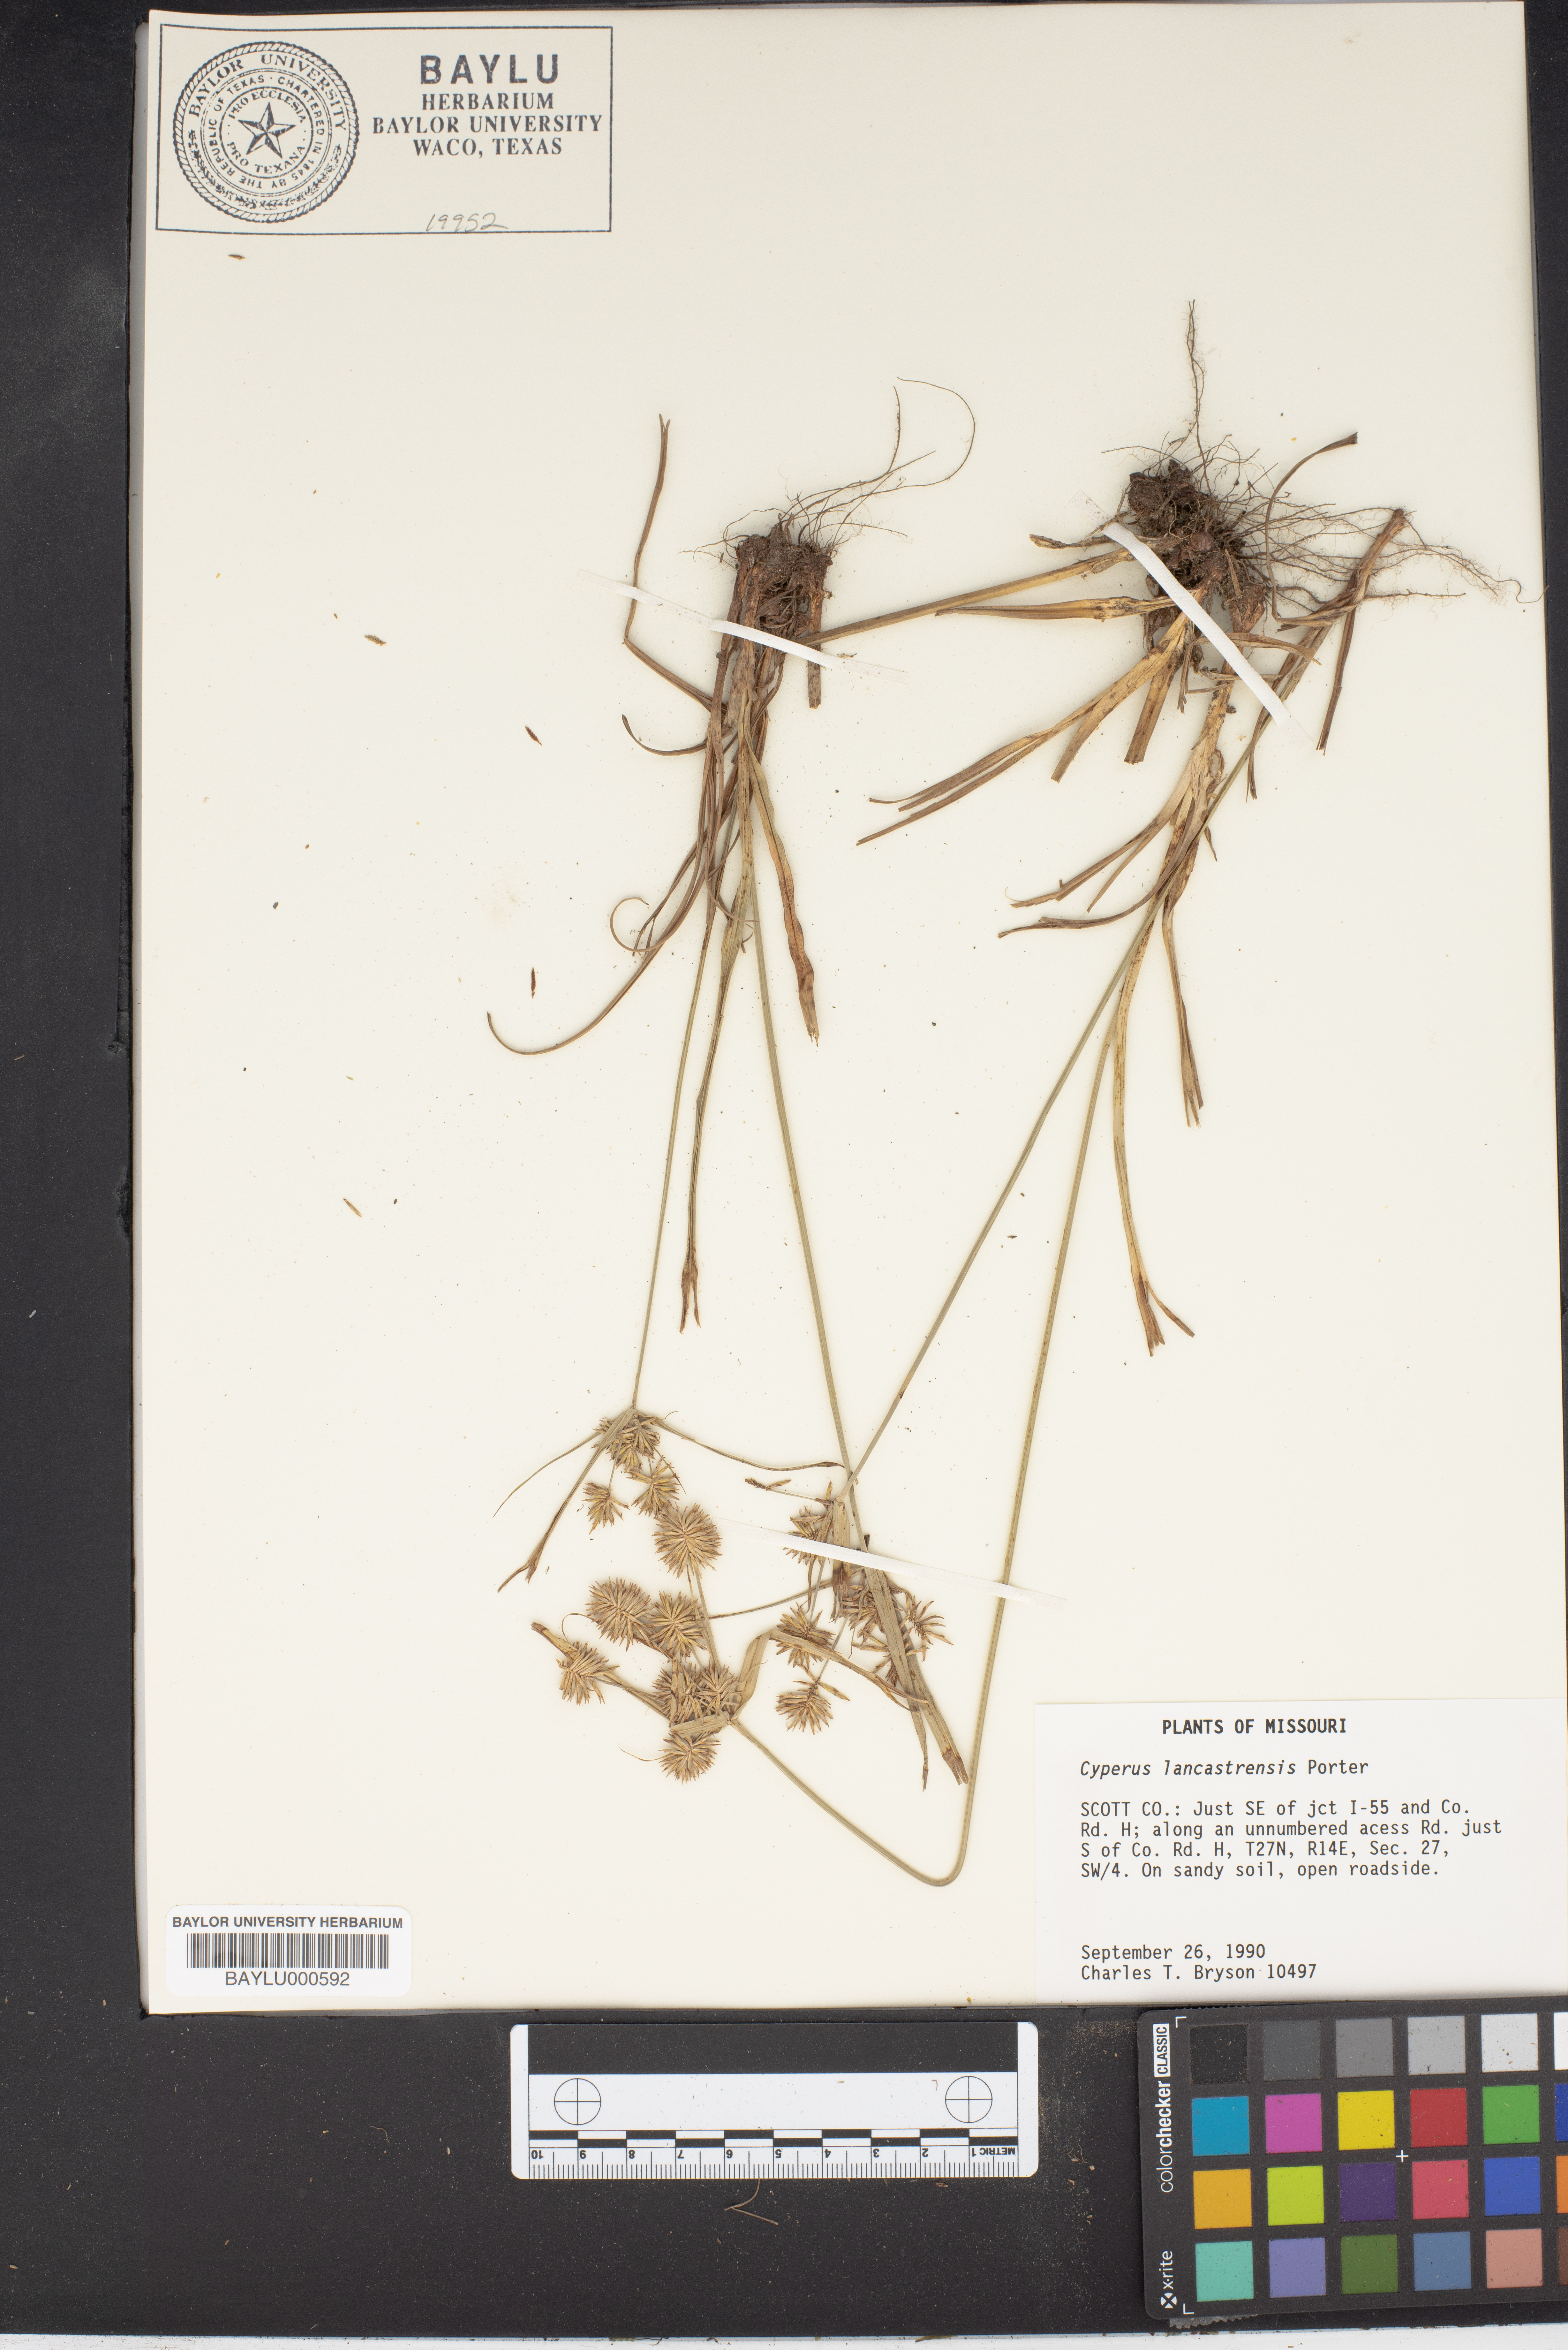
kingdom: Plantae
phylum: Tracheophyta
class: Liliopsida
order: Poales
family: Cyperaceae
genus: Cyperus
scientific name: Cyperus lancastriensis
